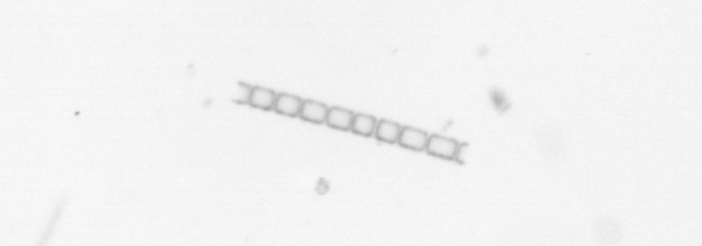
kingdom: Chromista
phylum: Ochrophyta
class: Bacillariophyceae
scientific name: Bacillariophyceae
